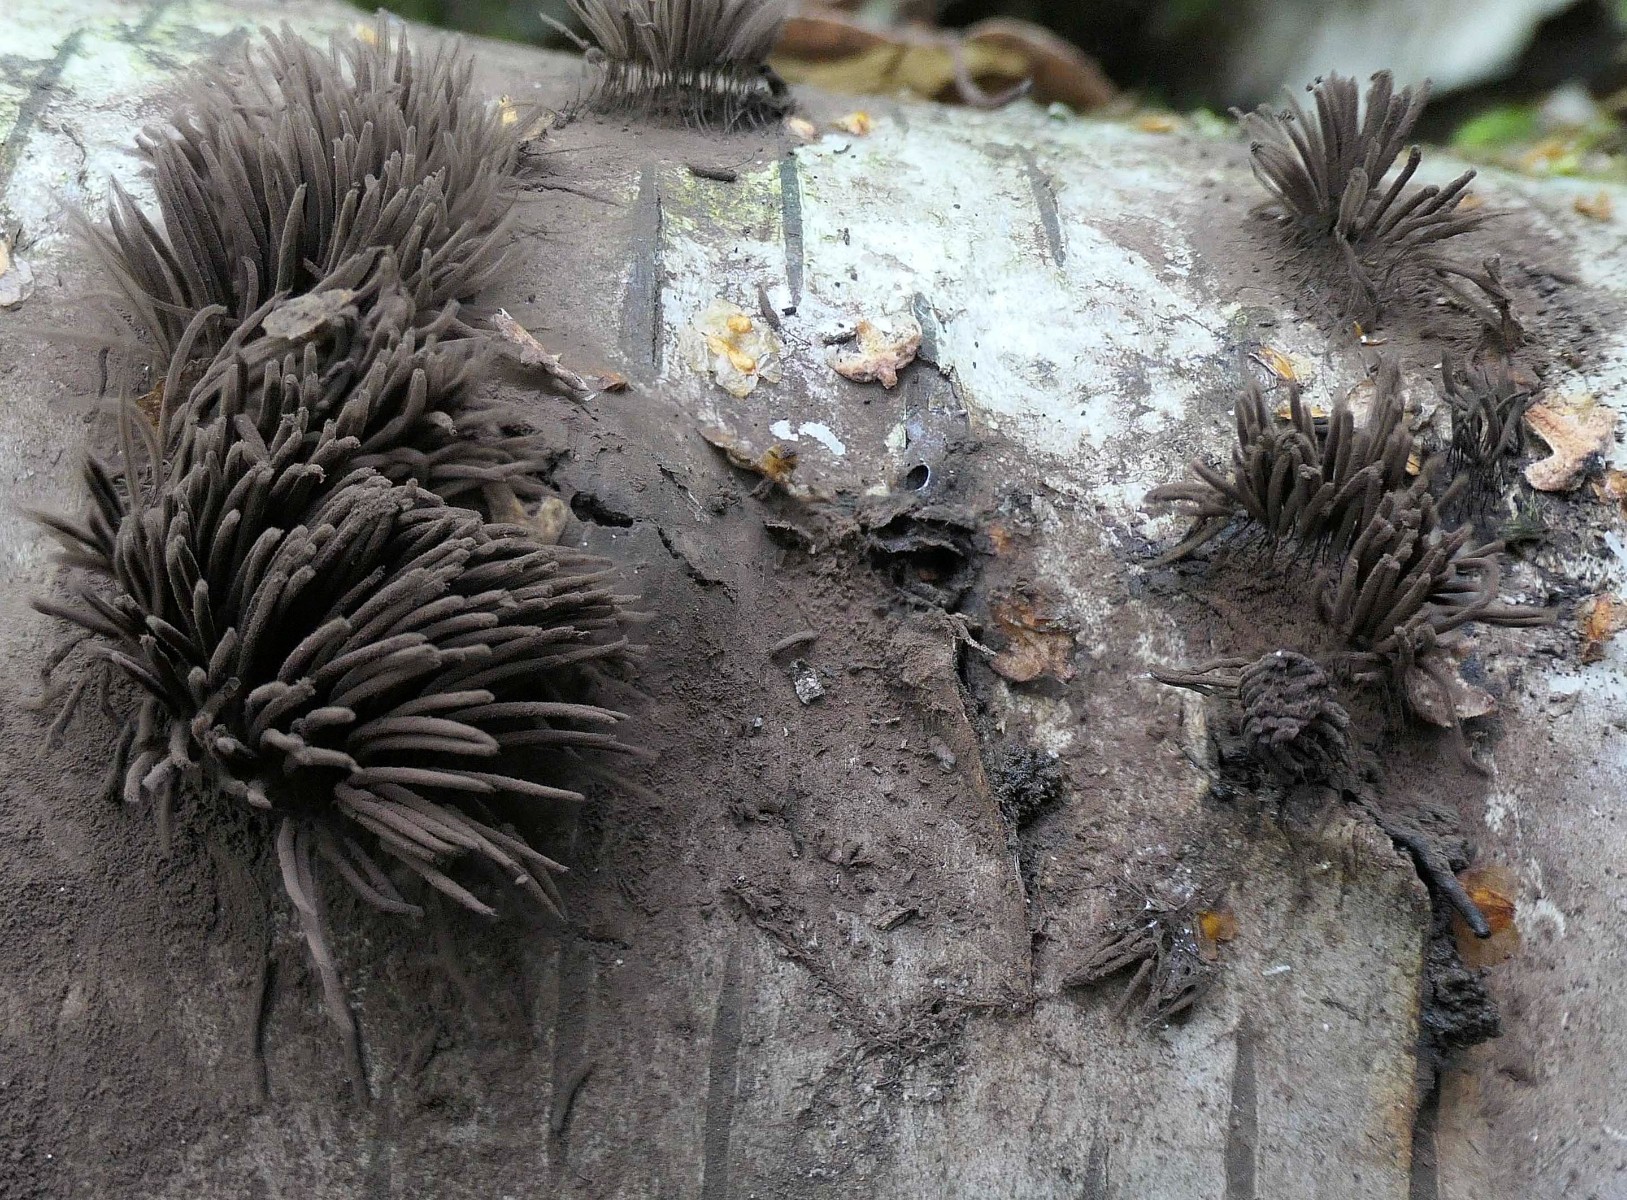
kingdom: Protozoa
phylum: Mycetozoa
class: Myxomycetes
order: Stemonitidales
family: Stemonitidaceae
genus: Stemonitis
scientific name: Stemonitis fusca
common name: sodbrun støvkølle
